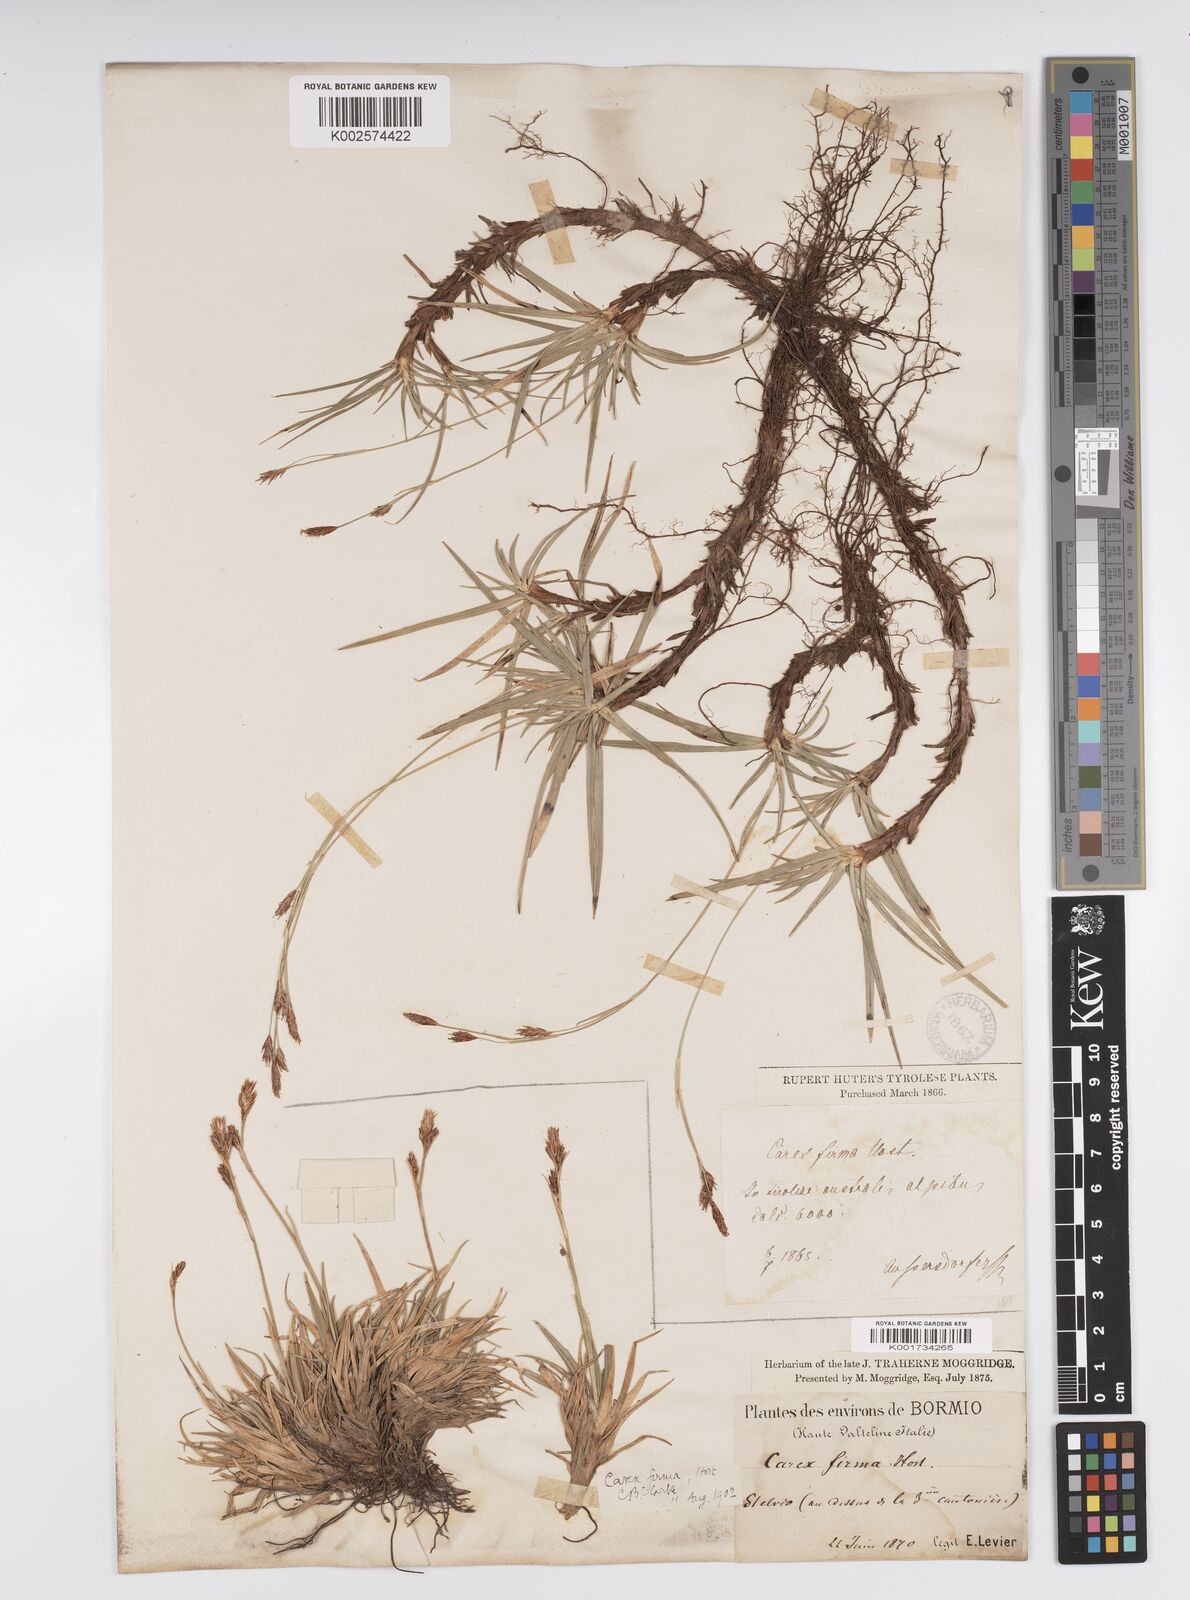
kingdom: Plantae
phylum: Tracheophyta
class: Liliopsida
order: Poales
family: Cyperaceae
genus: Carex
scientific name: Carex firma
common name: Dwarf pillow sedge
